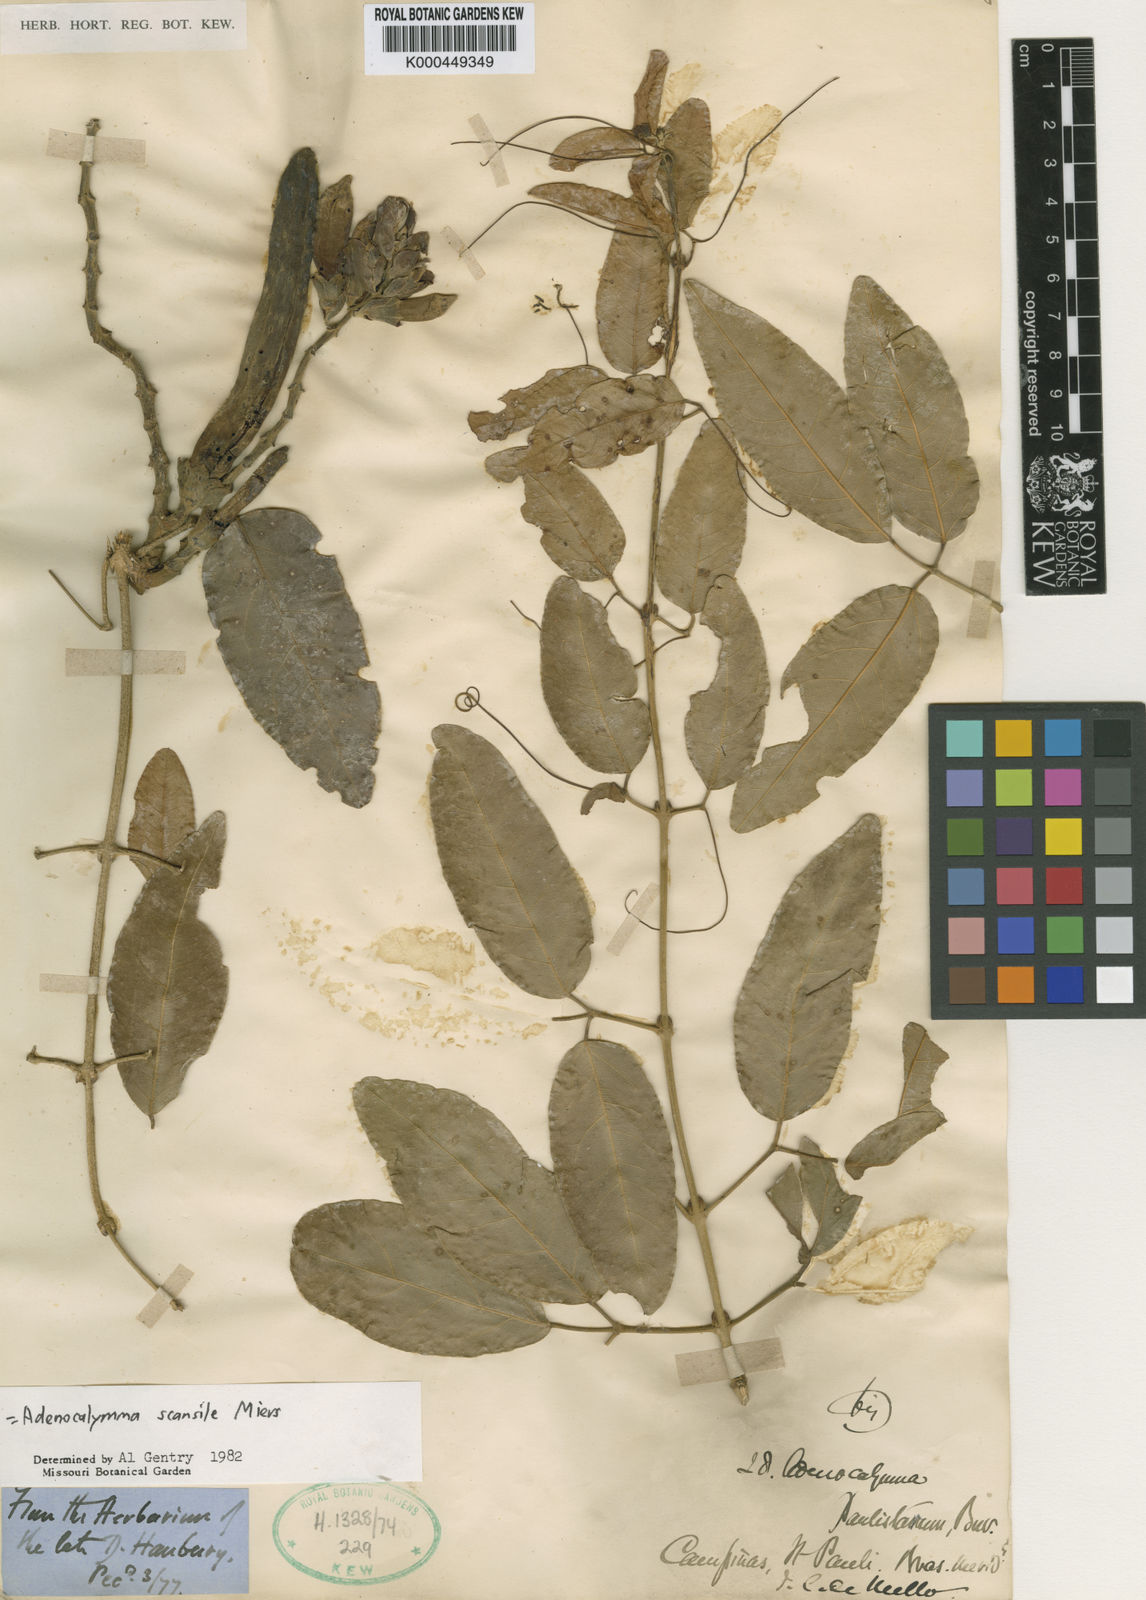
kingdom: Plantae
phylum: Tracheophyta
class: Magnoliopsida
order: Lamiales
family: Bignoniaceae
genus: Adenocalymma
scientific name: Adenocalymma scansile
